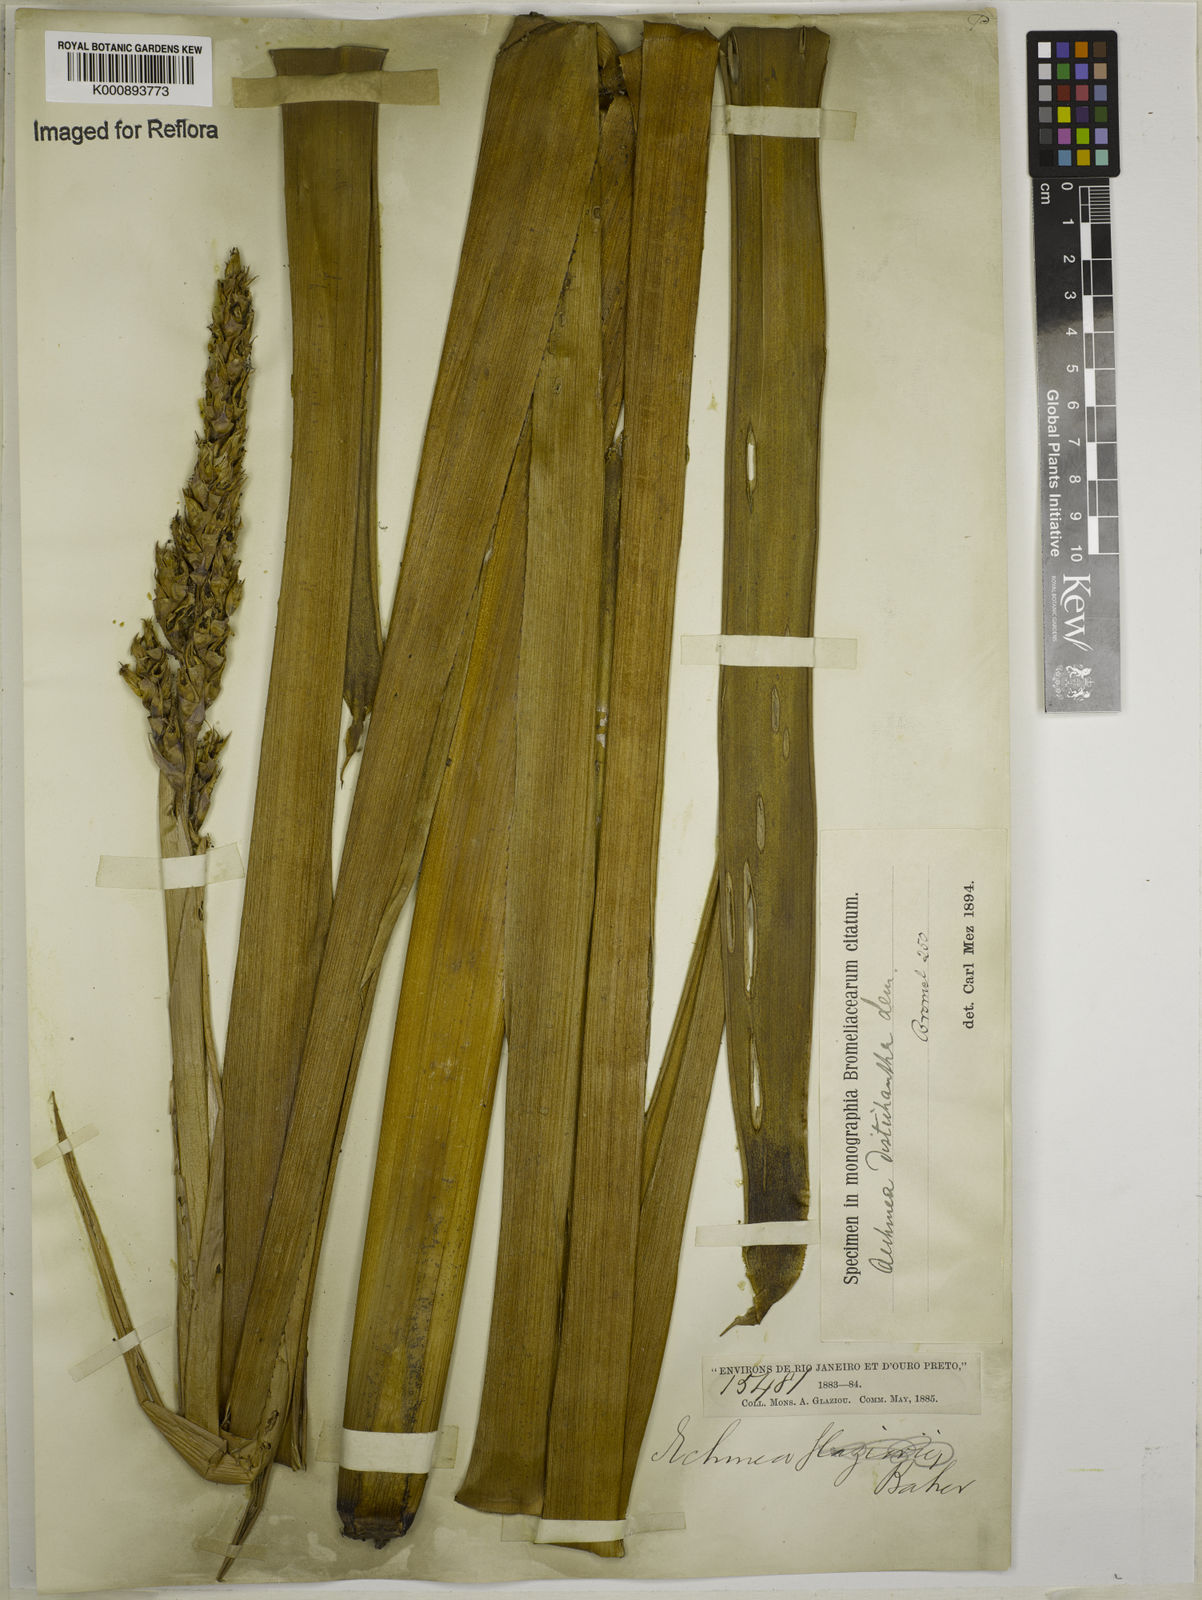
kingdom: Plantae
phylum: Tracheophyta
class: Liliopsida
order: Poales
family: Bromeliaceae
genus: Aechmea
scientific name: Aechmea distichantha
